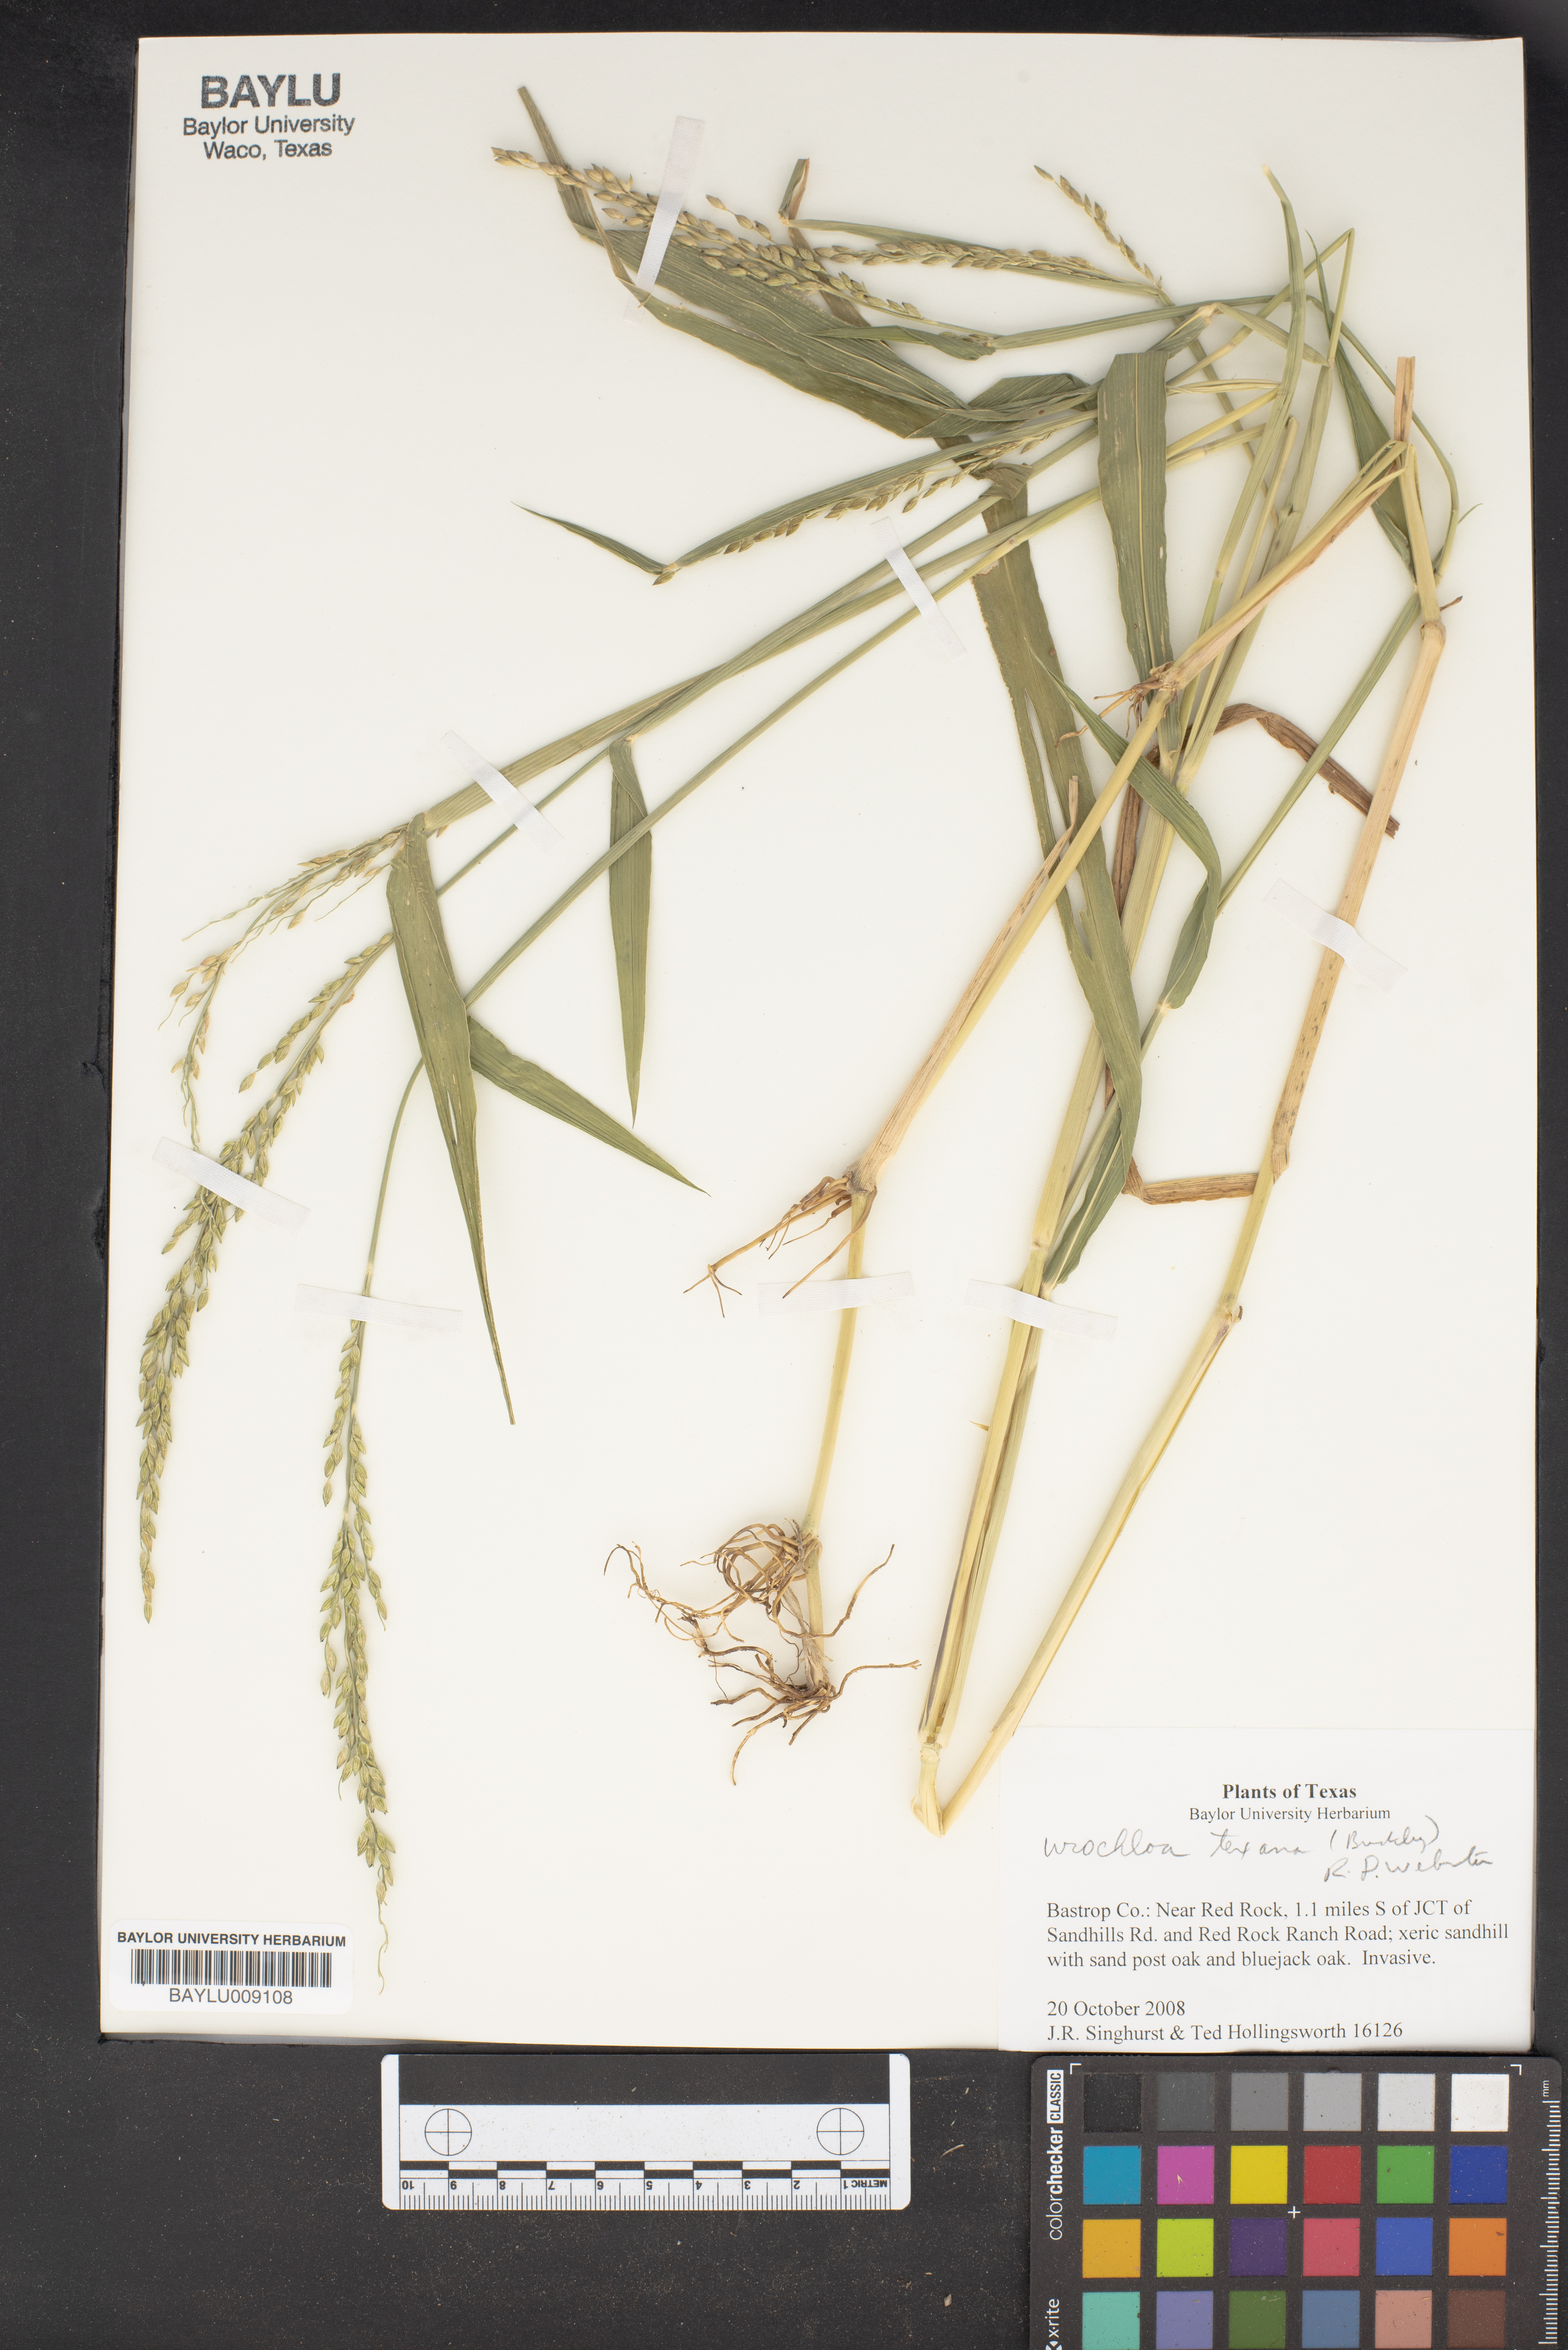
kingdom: Plantae
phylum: Tracheophyta
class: Liliopsida
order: Poales
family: Poaceae
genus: Urochloa
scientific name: Urochloa texana
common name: Texas millet
